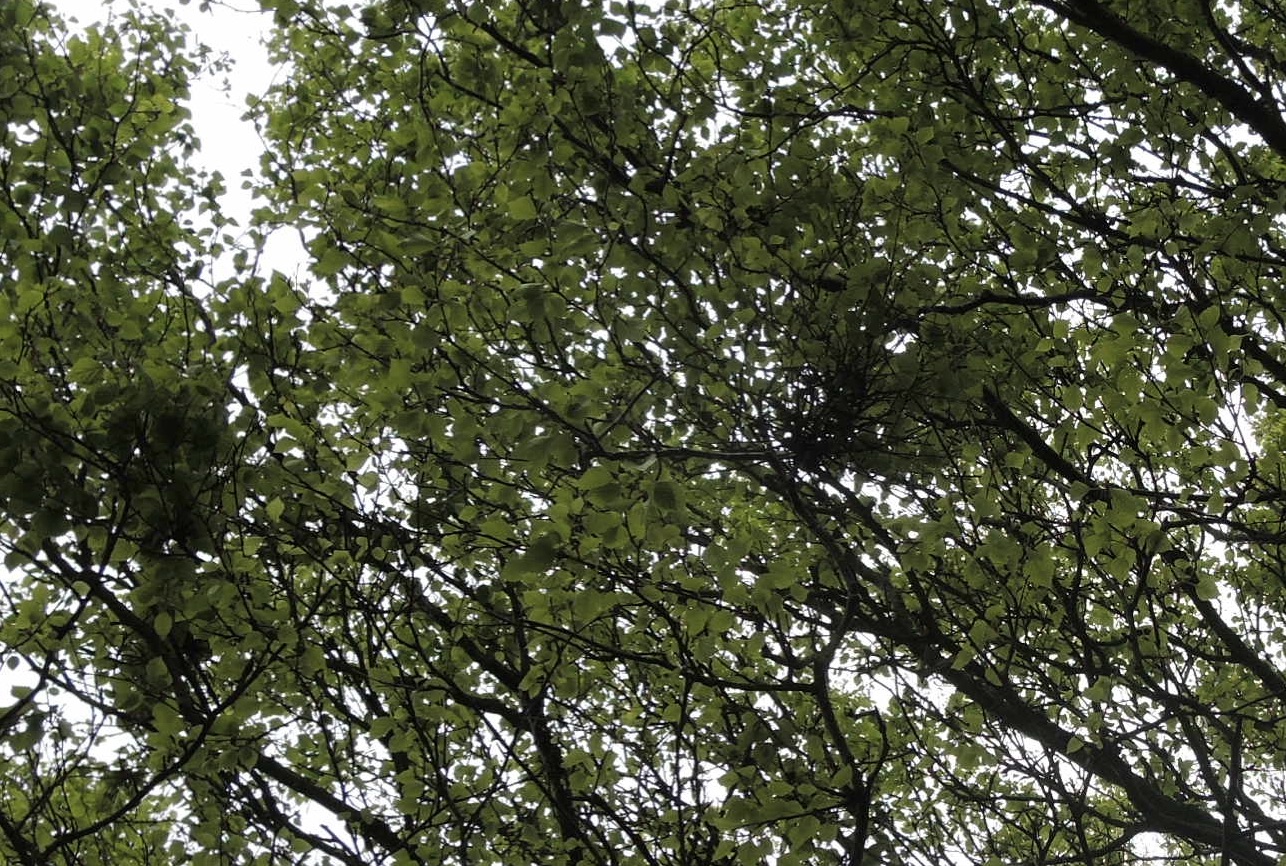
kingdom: Fungi
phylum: Ascomycota
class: Taphrinomycetes
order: Taphrinales
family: Taphrinaceae
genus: Taphrina
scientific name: Taphrina betulina
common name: hekse-sækdug
